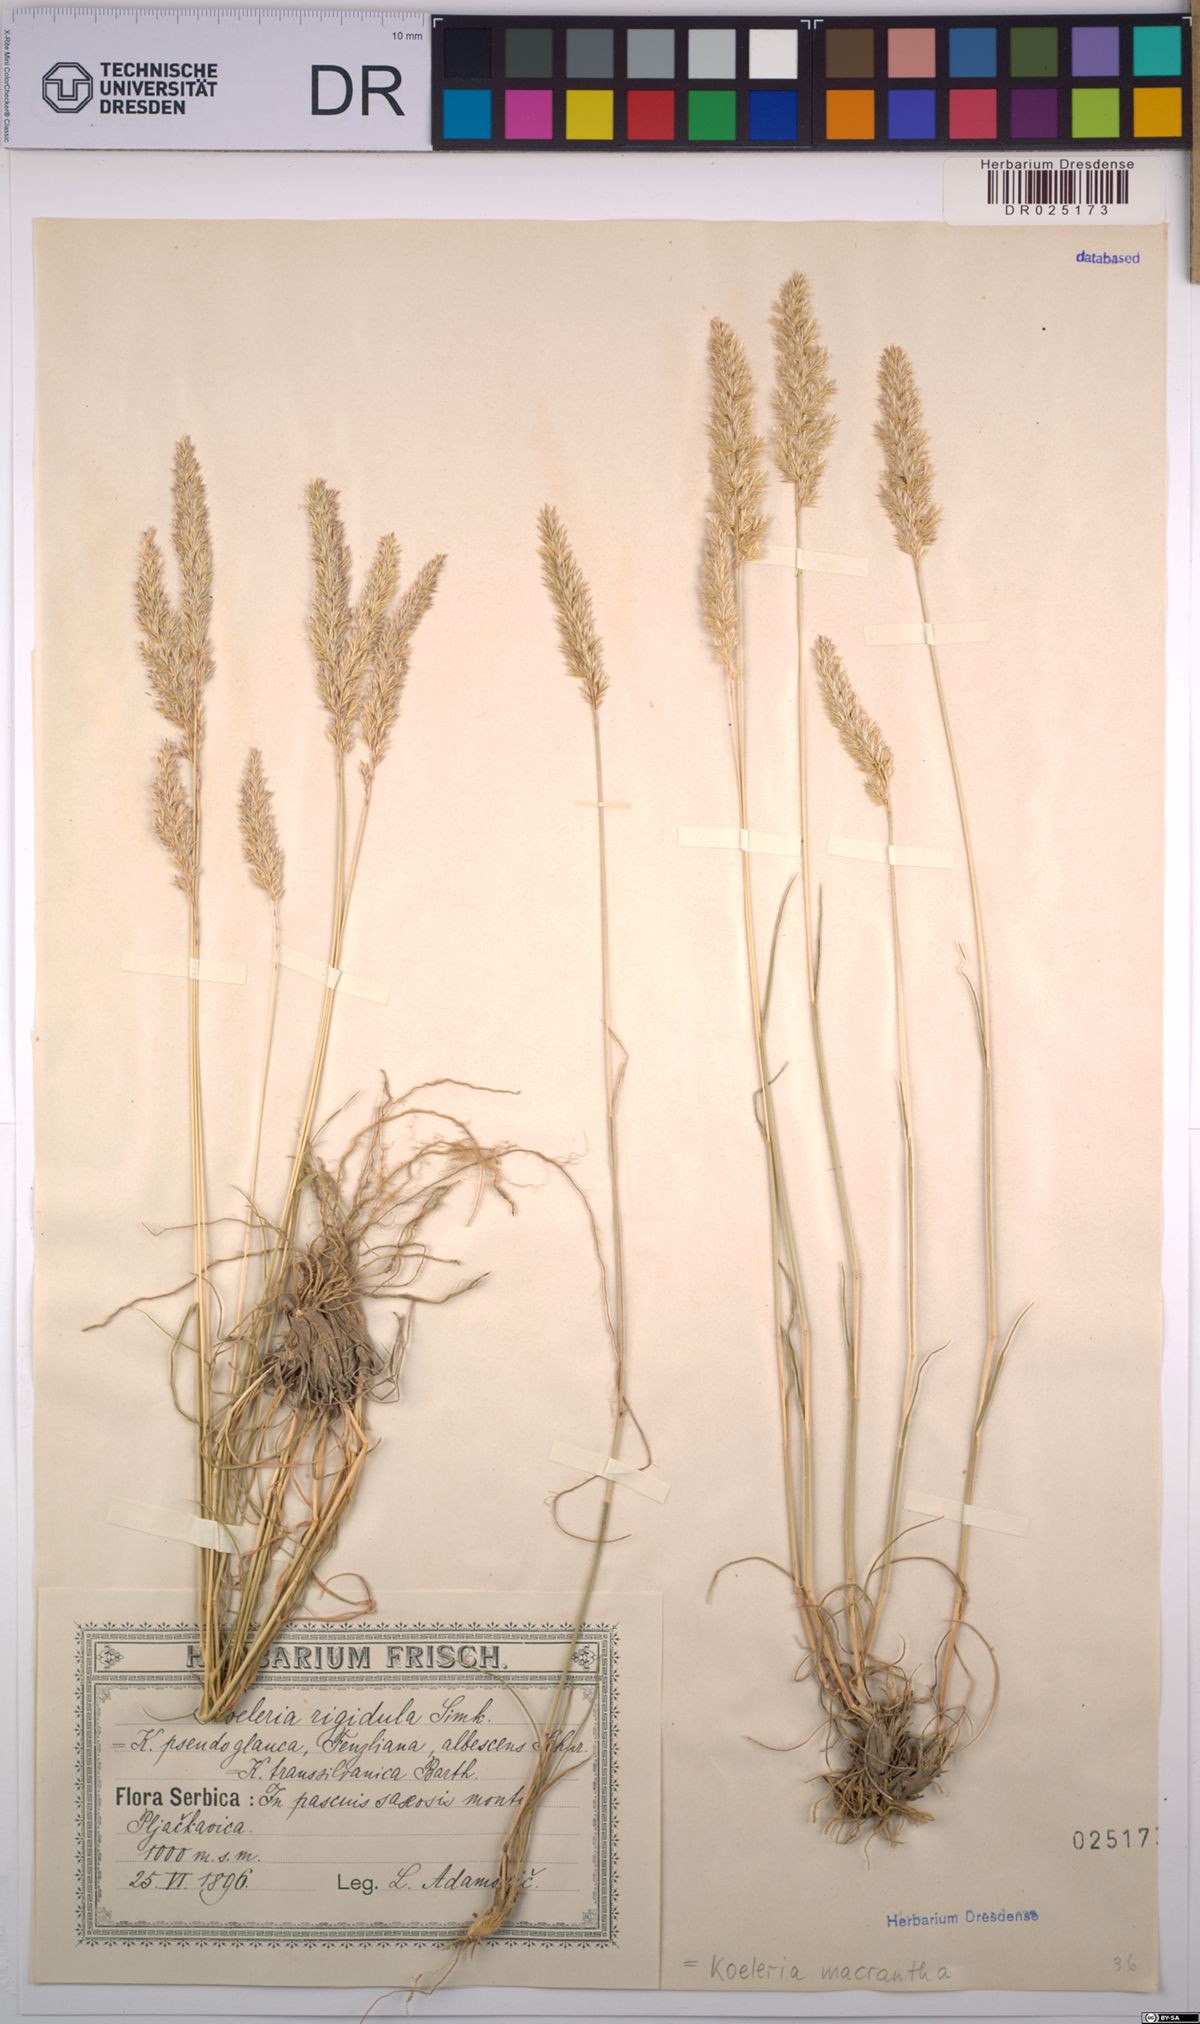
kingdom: Plantae
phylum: Tracheophyta
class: Liliopsida
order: Poales
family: Poaceae
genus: Koeleria
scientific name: Koeleria macrantha
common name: Crested hair-grass
